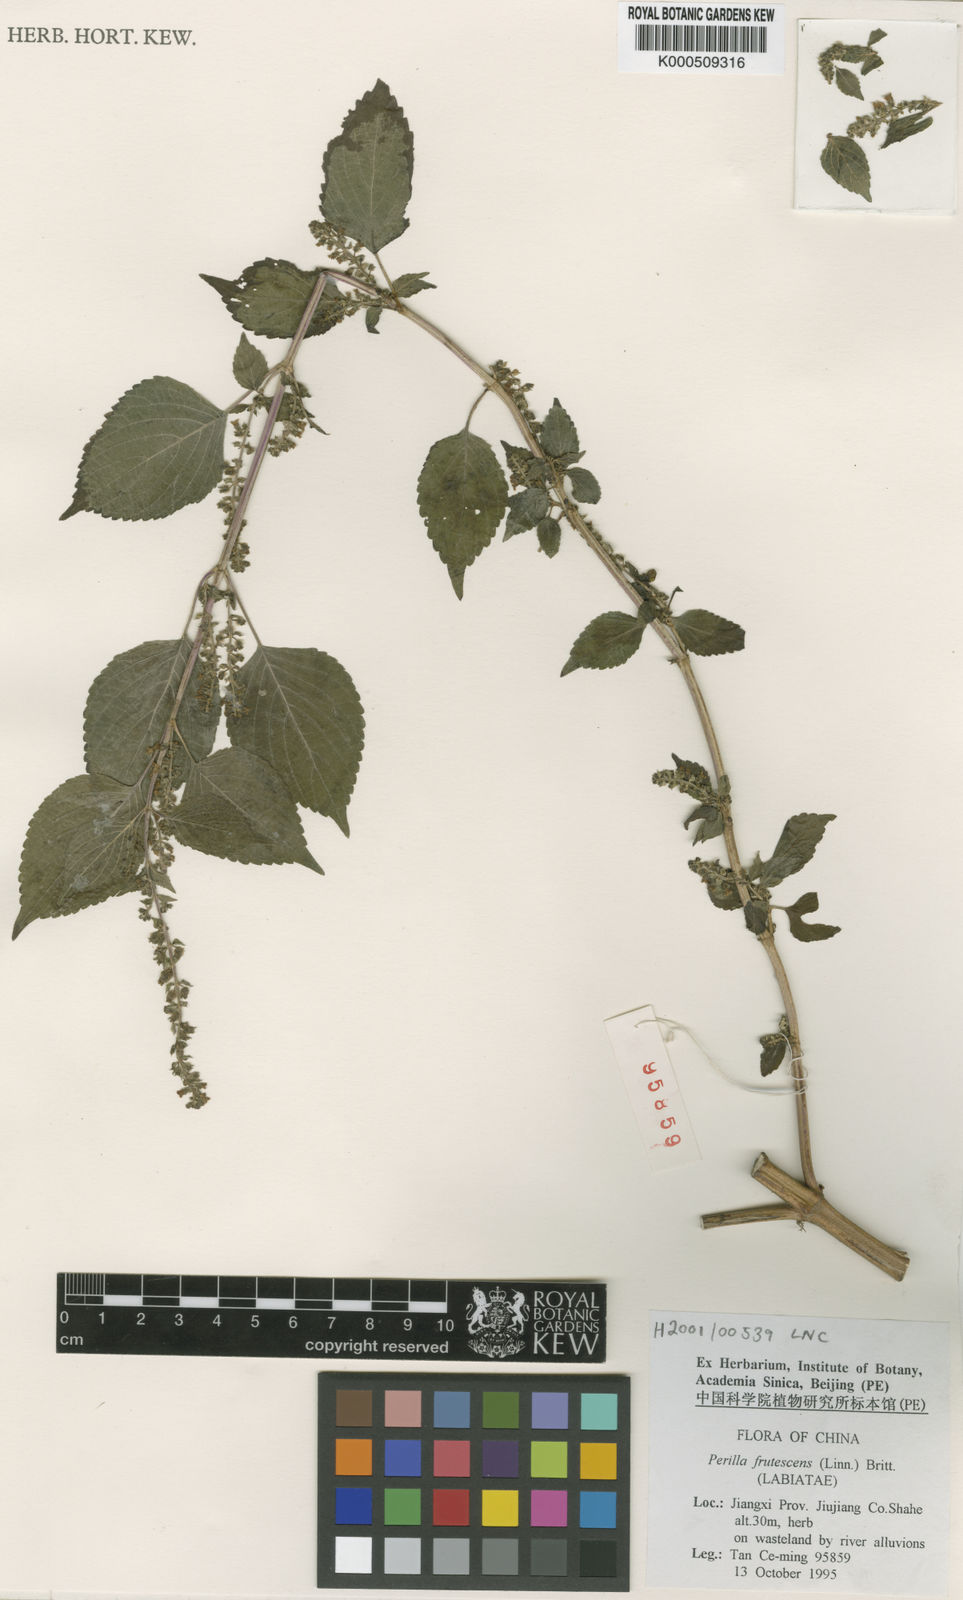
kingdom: Plantae
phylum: Tracheophyta
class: Magnoliopsida
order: Lamiales
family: Lamiaceae
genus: Perilla
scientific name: Perilla frutescens
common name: Perilla
